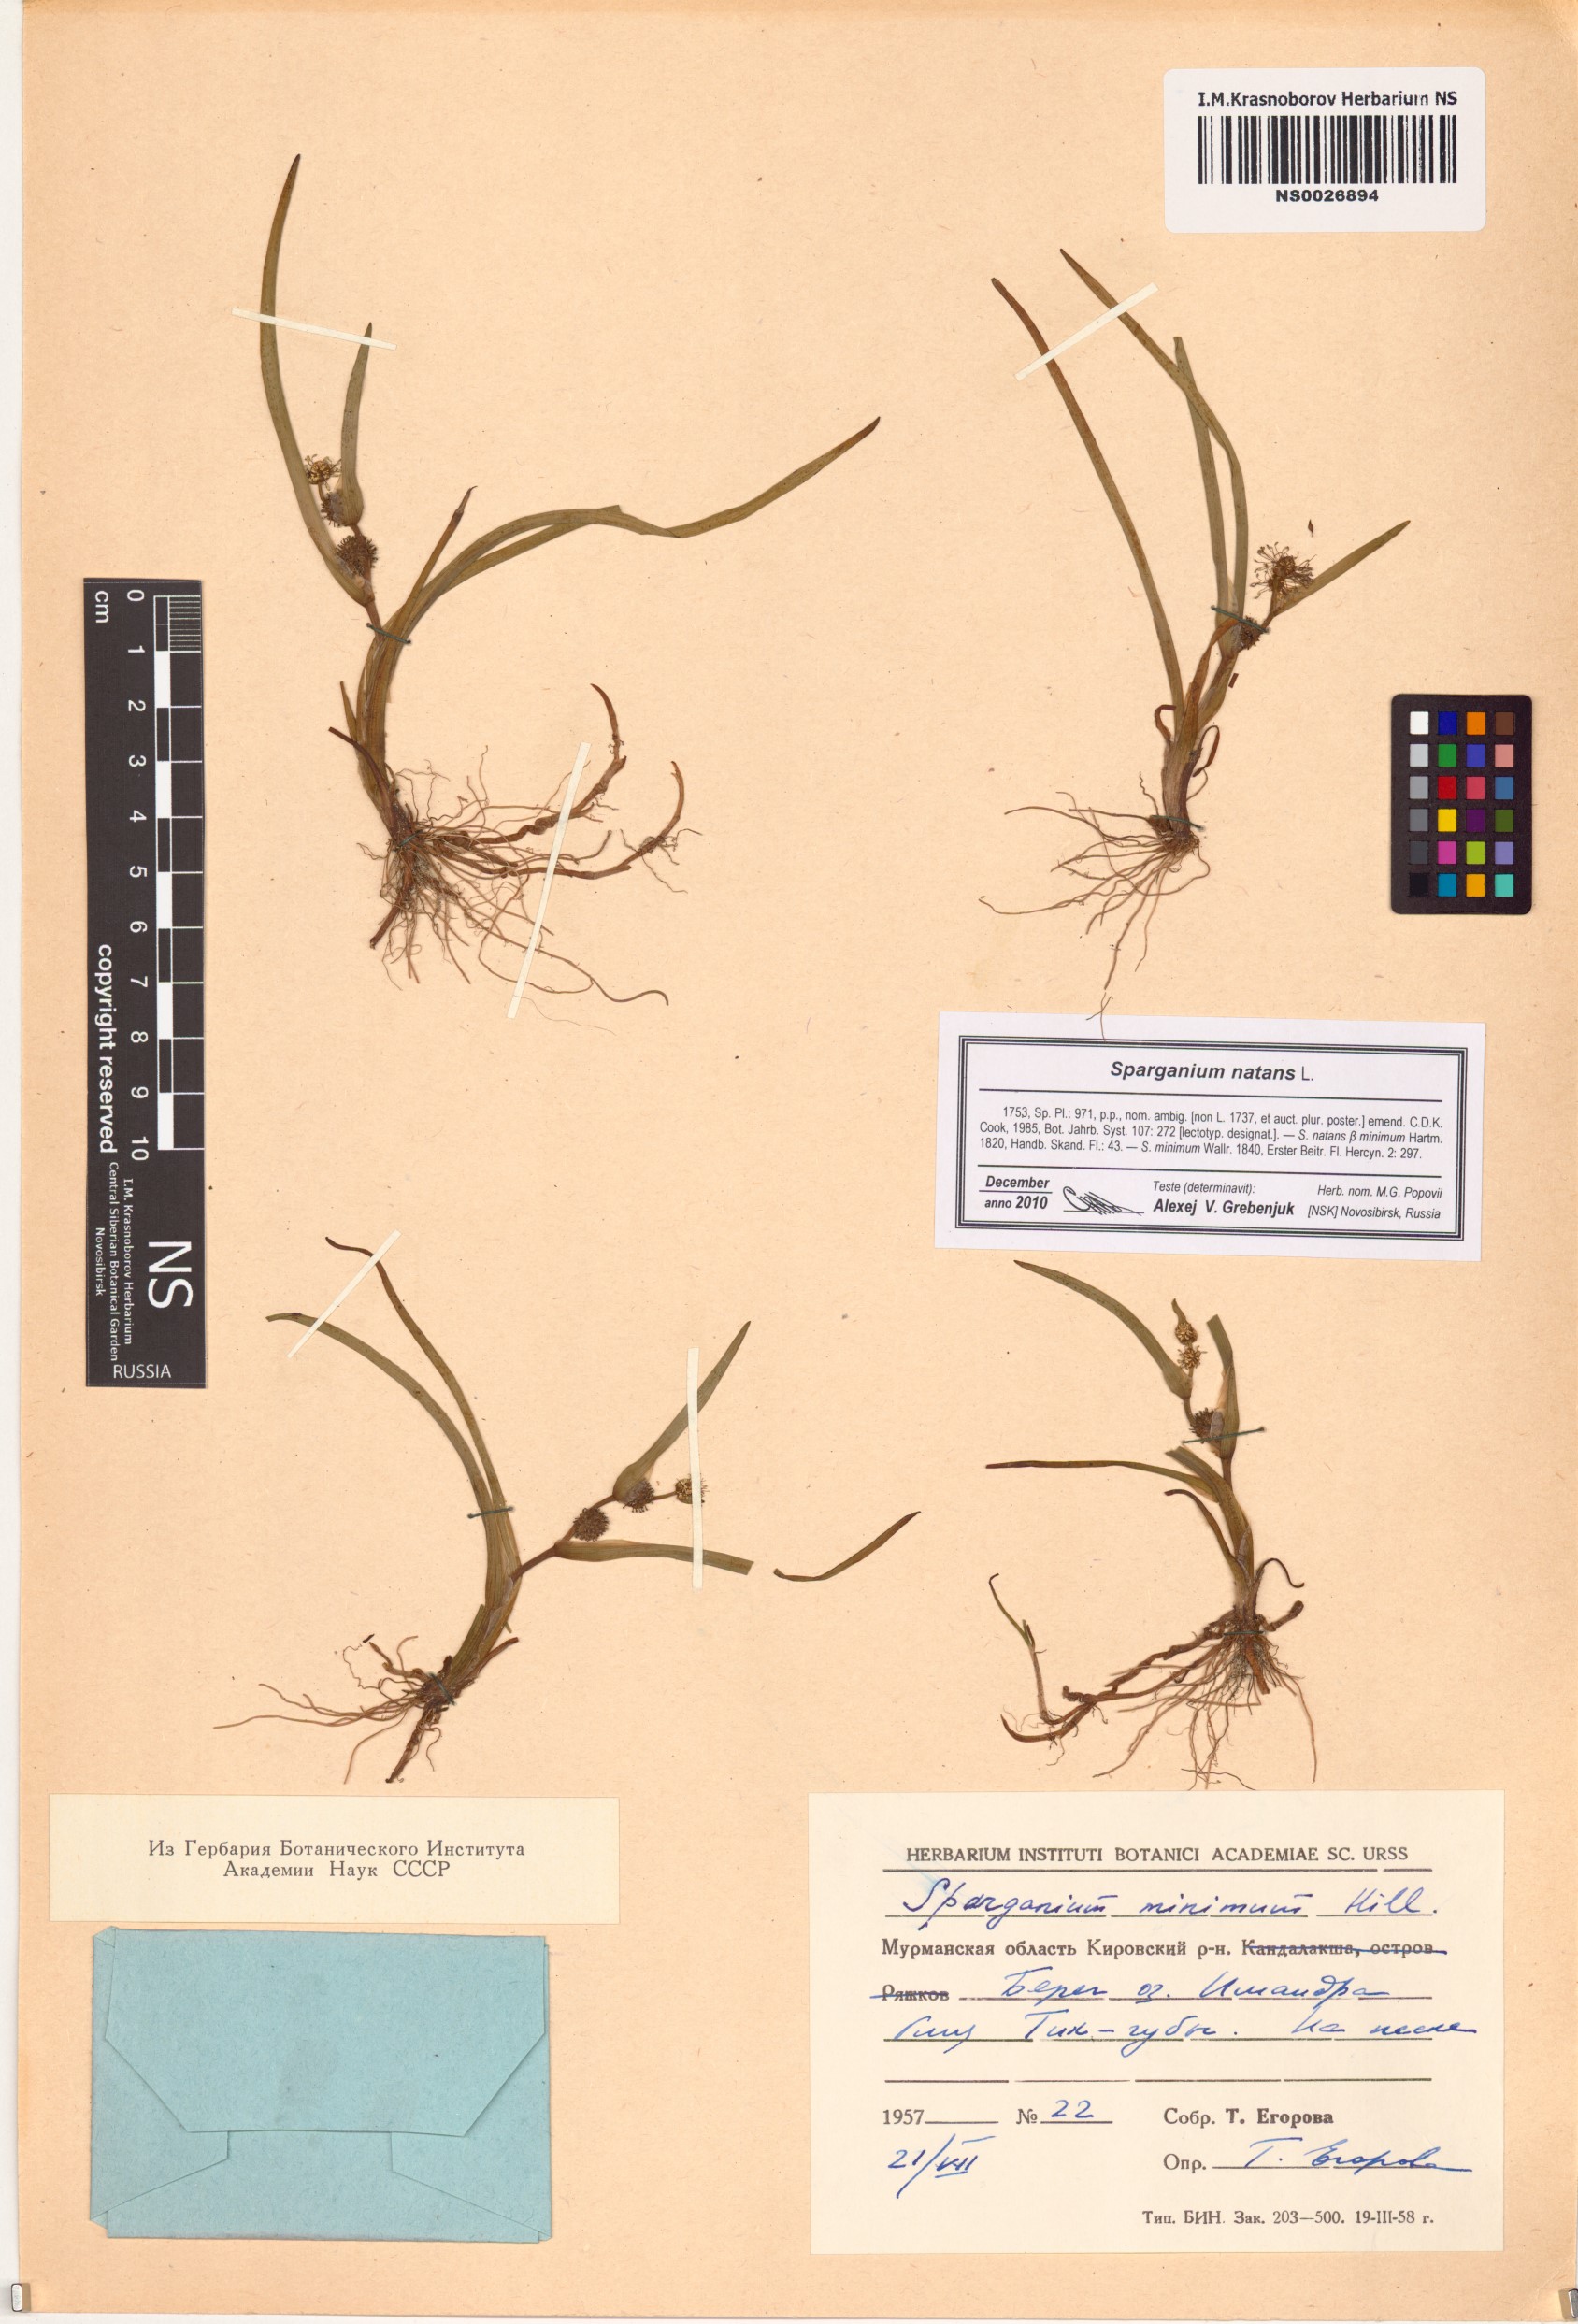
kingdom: Plantae
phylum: Tracheophyta
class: Liliopsida
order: Poales
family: Typhaceae
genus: Sparganium
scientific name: Sparganium natans
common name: Least bur-reed
